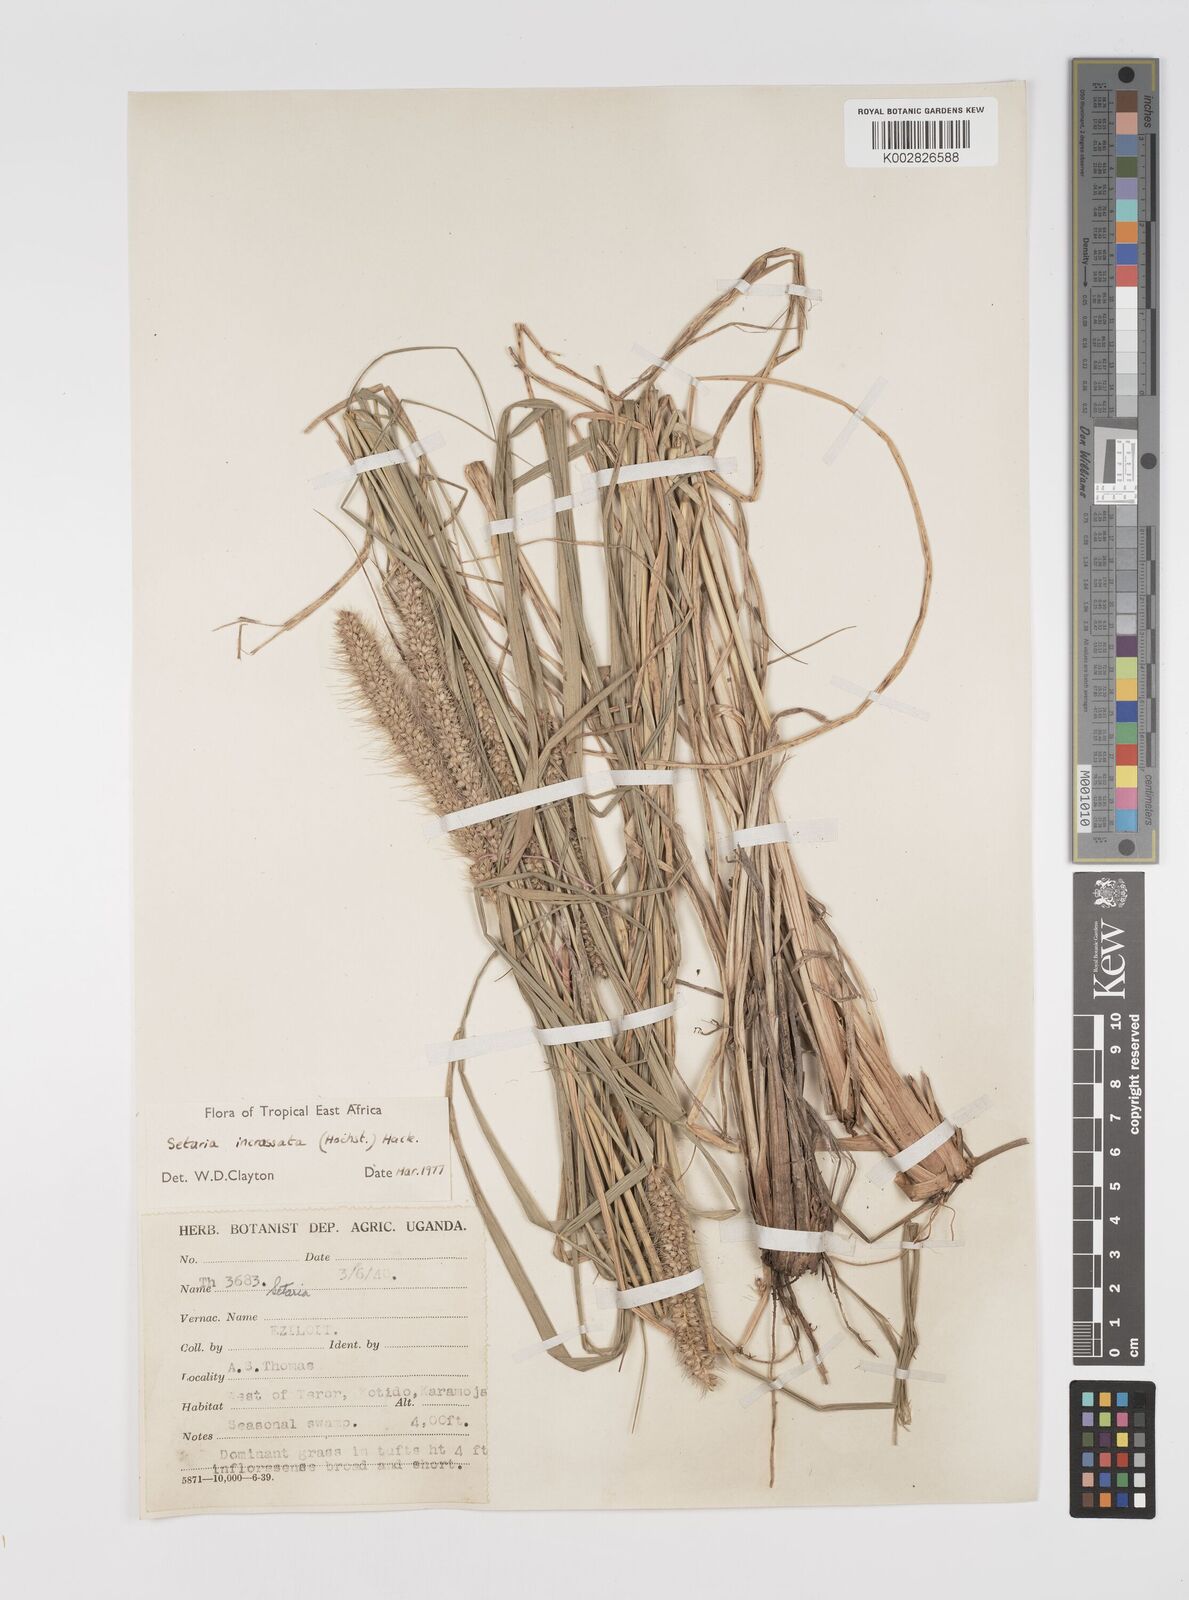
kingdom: Plantae
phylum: Tracheophyta
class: Liliopsida
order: Poales
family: Poaceae
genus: Setaria
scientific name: Setaria incrassata
